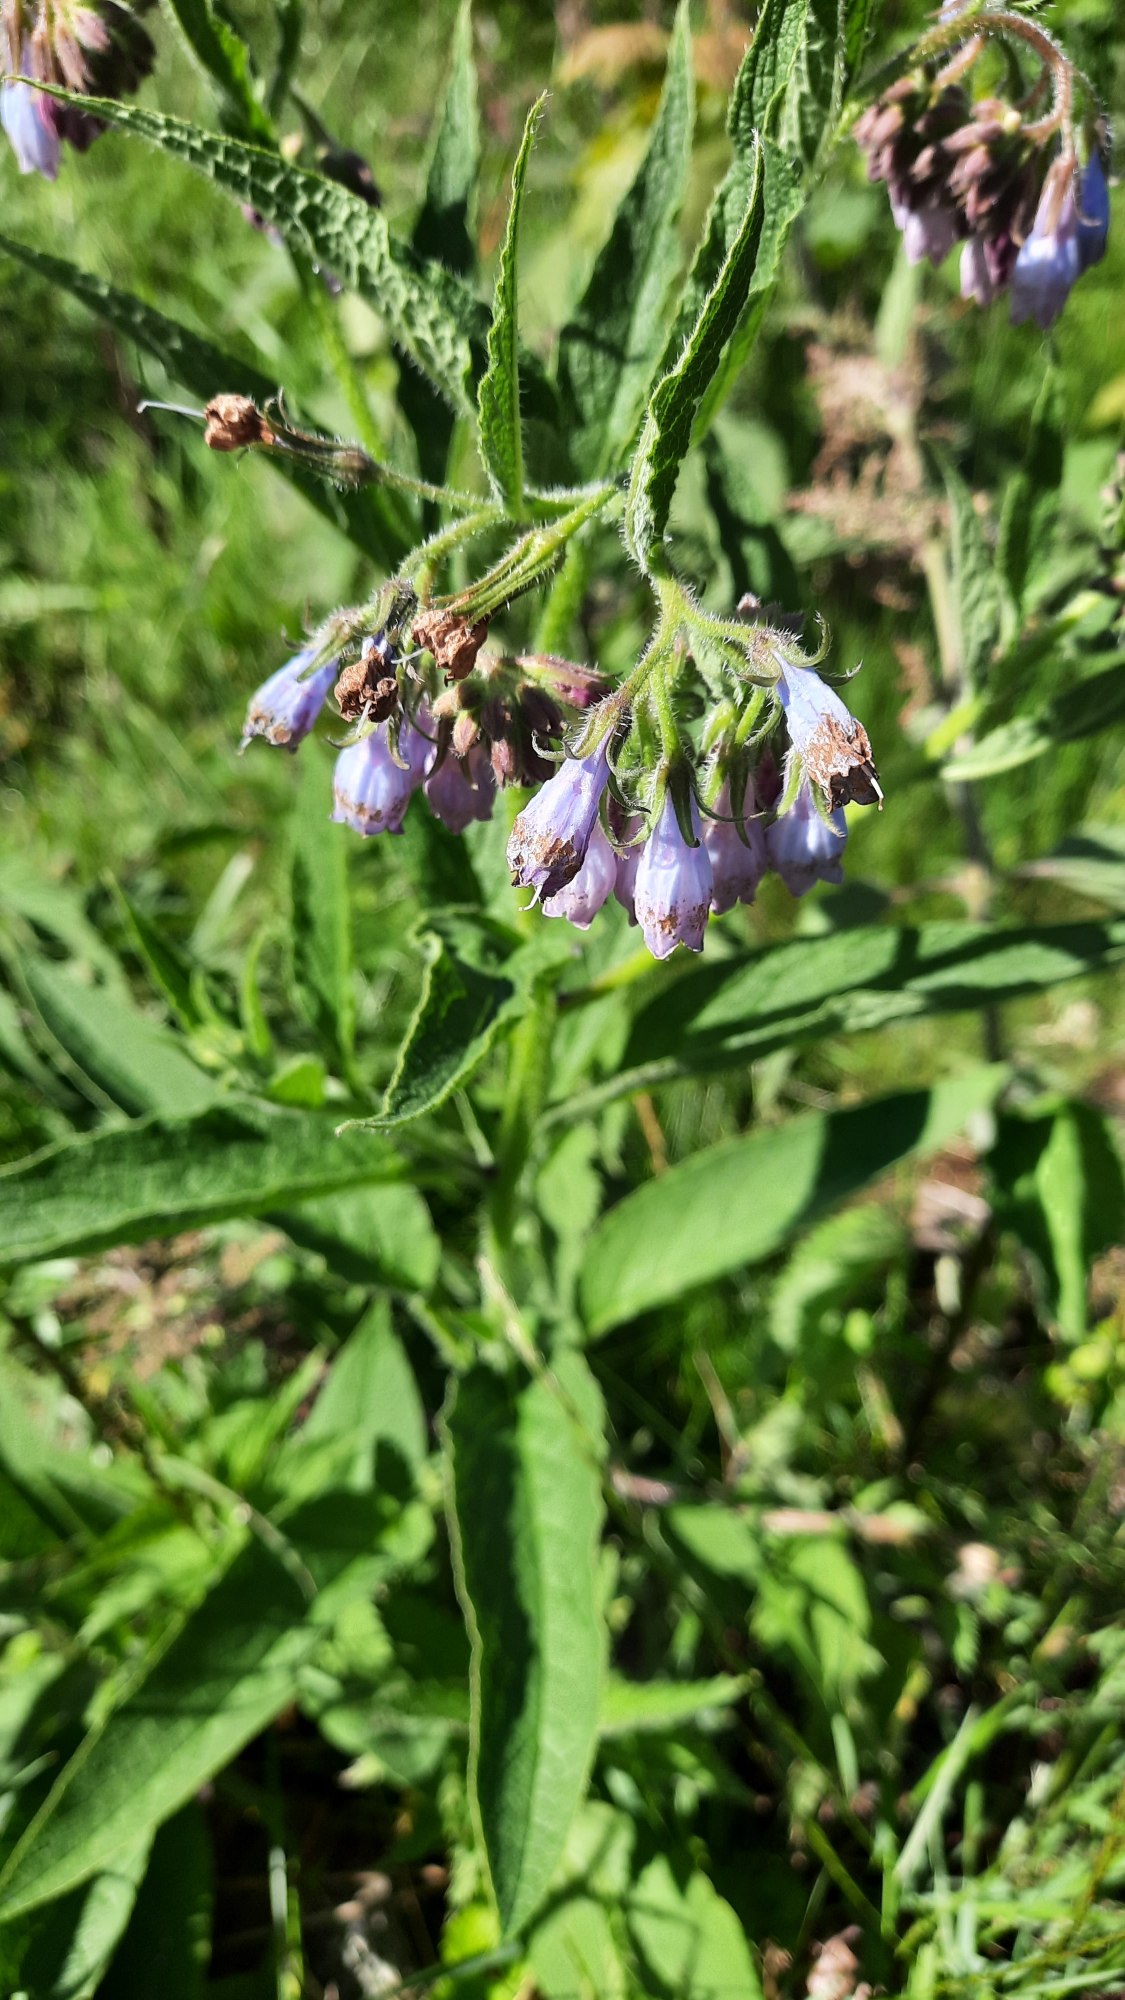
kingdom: Plantae
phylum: Tracheophyta
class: Magnoliopsida
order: Boraginales
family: Boraginaceae
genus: Symphytum
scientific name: Symphytum uplandicum
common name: Foder-kulsukker
